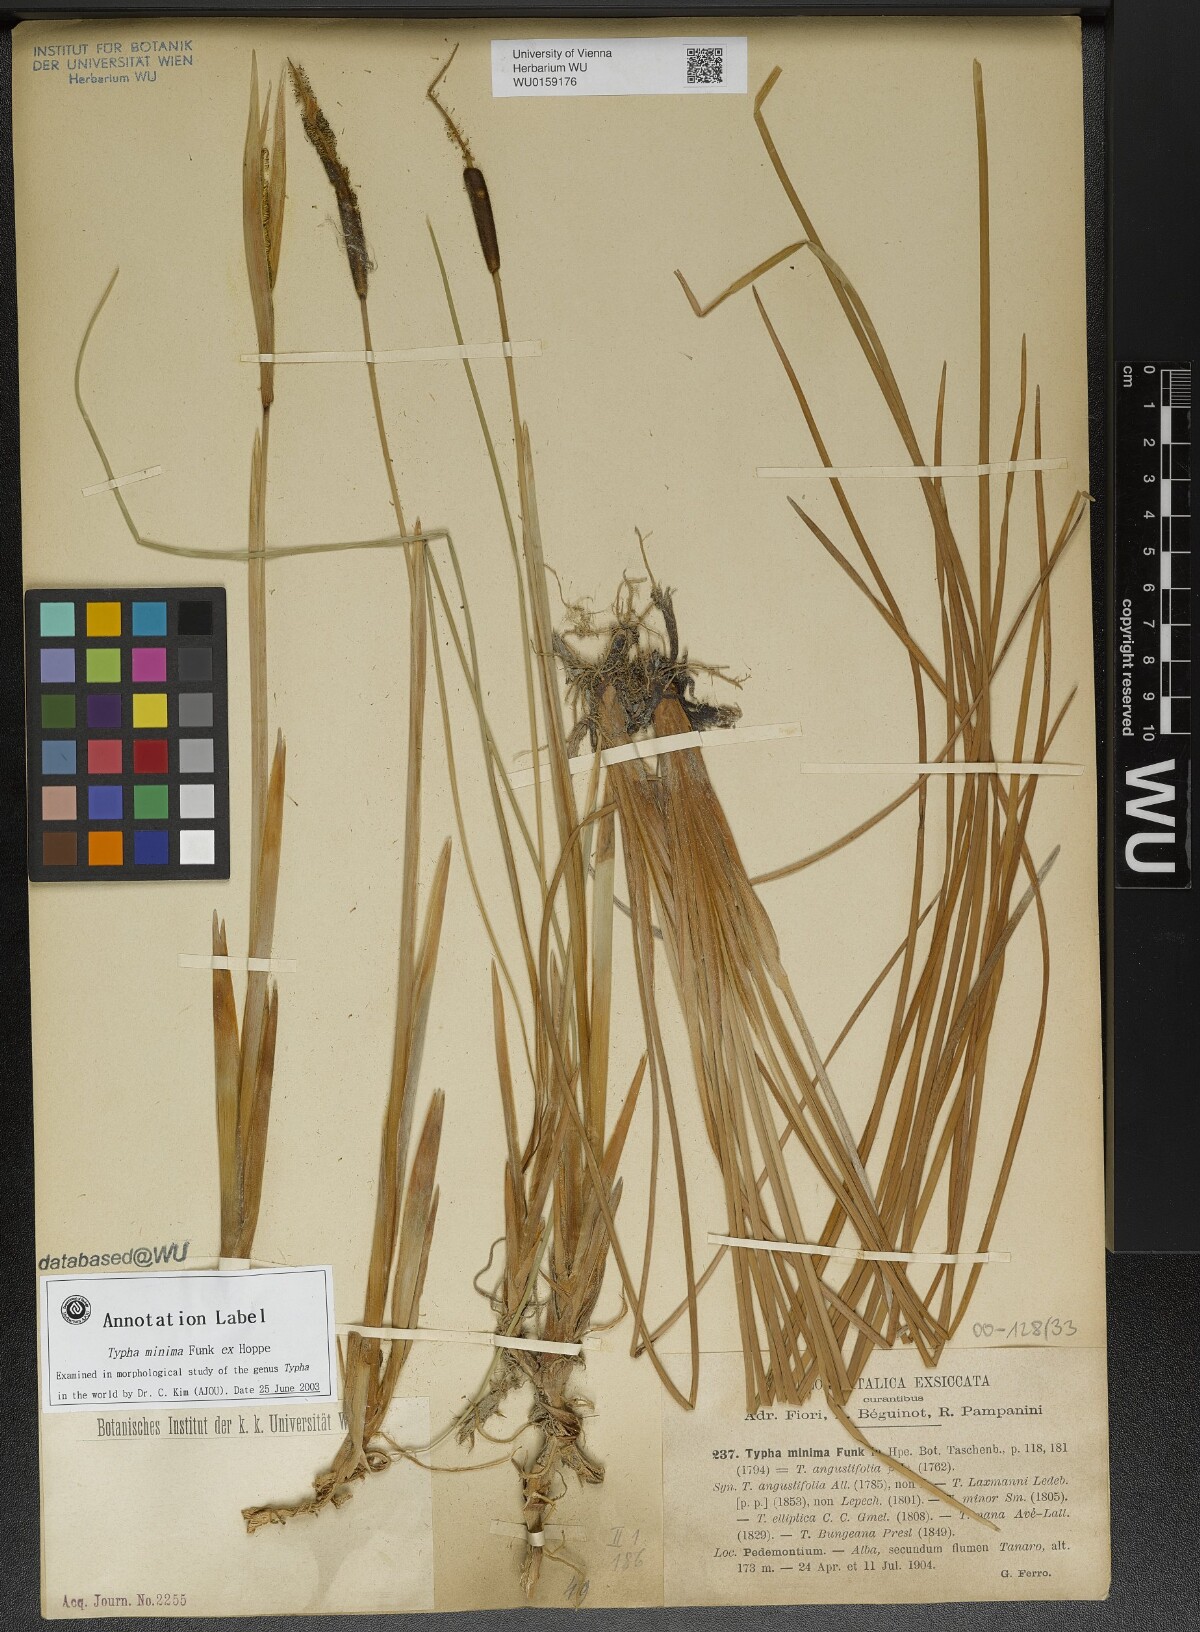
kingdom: Plantae
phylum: Tracheophyta
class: Liliopsida
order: Poales
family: Typhaceae
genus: Typha
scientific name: Typha minima
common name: Dwarf bulrush
